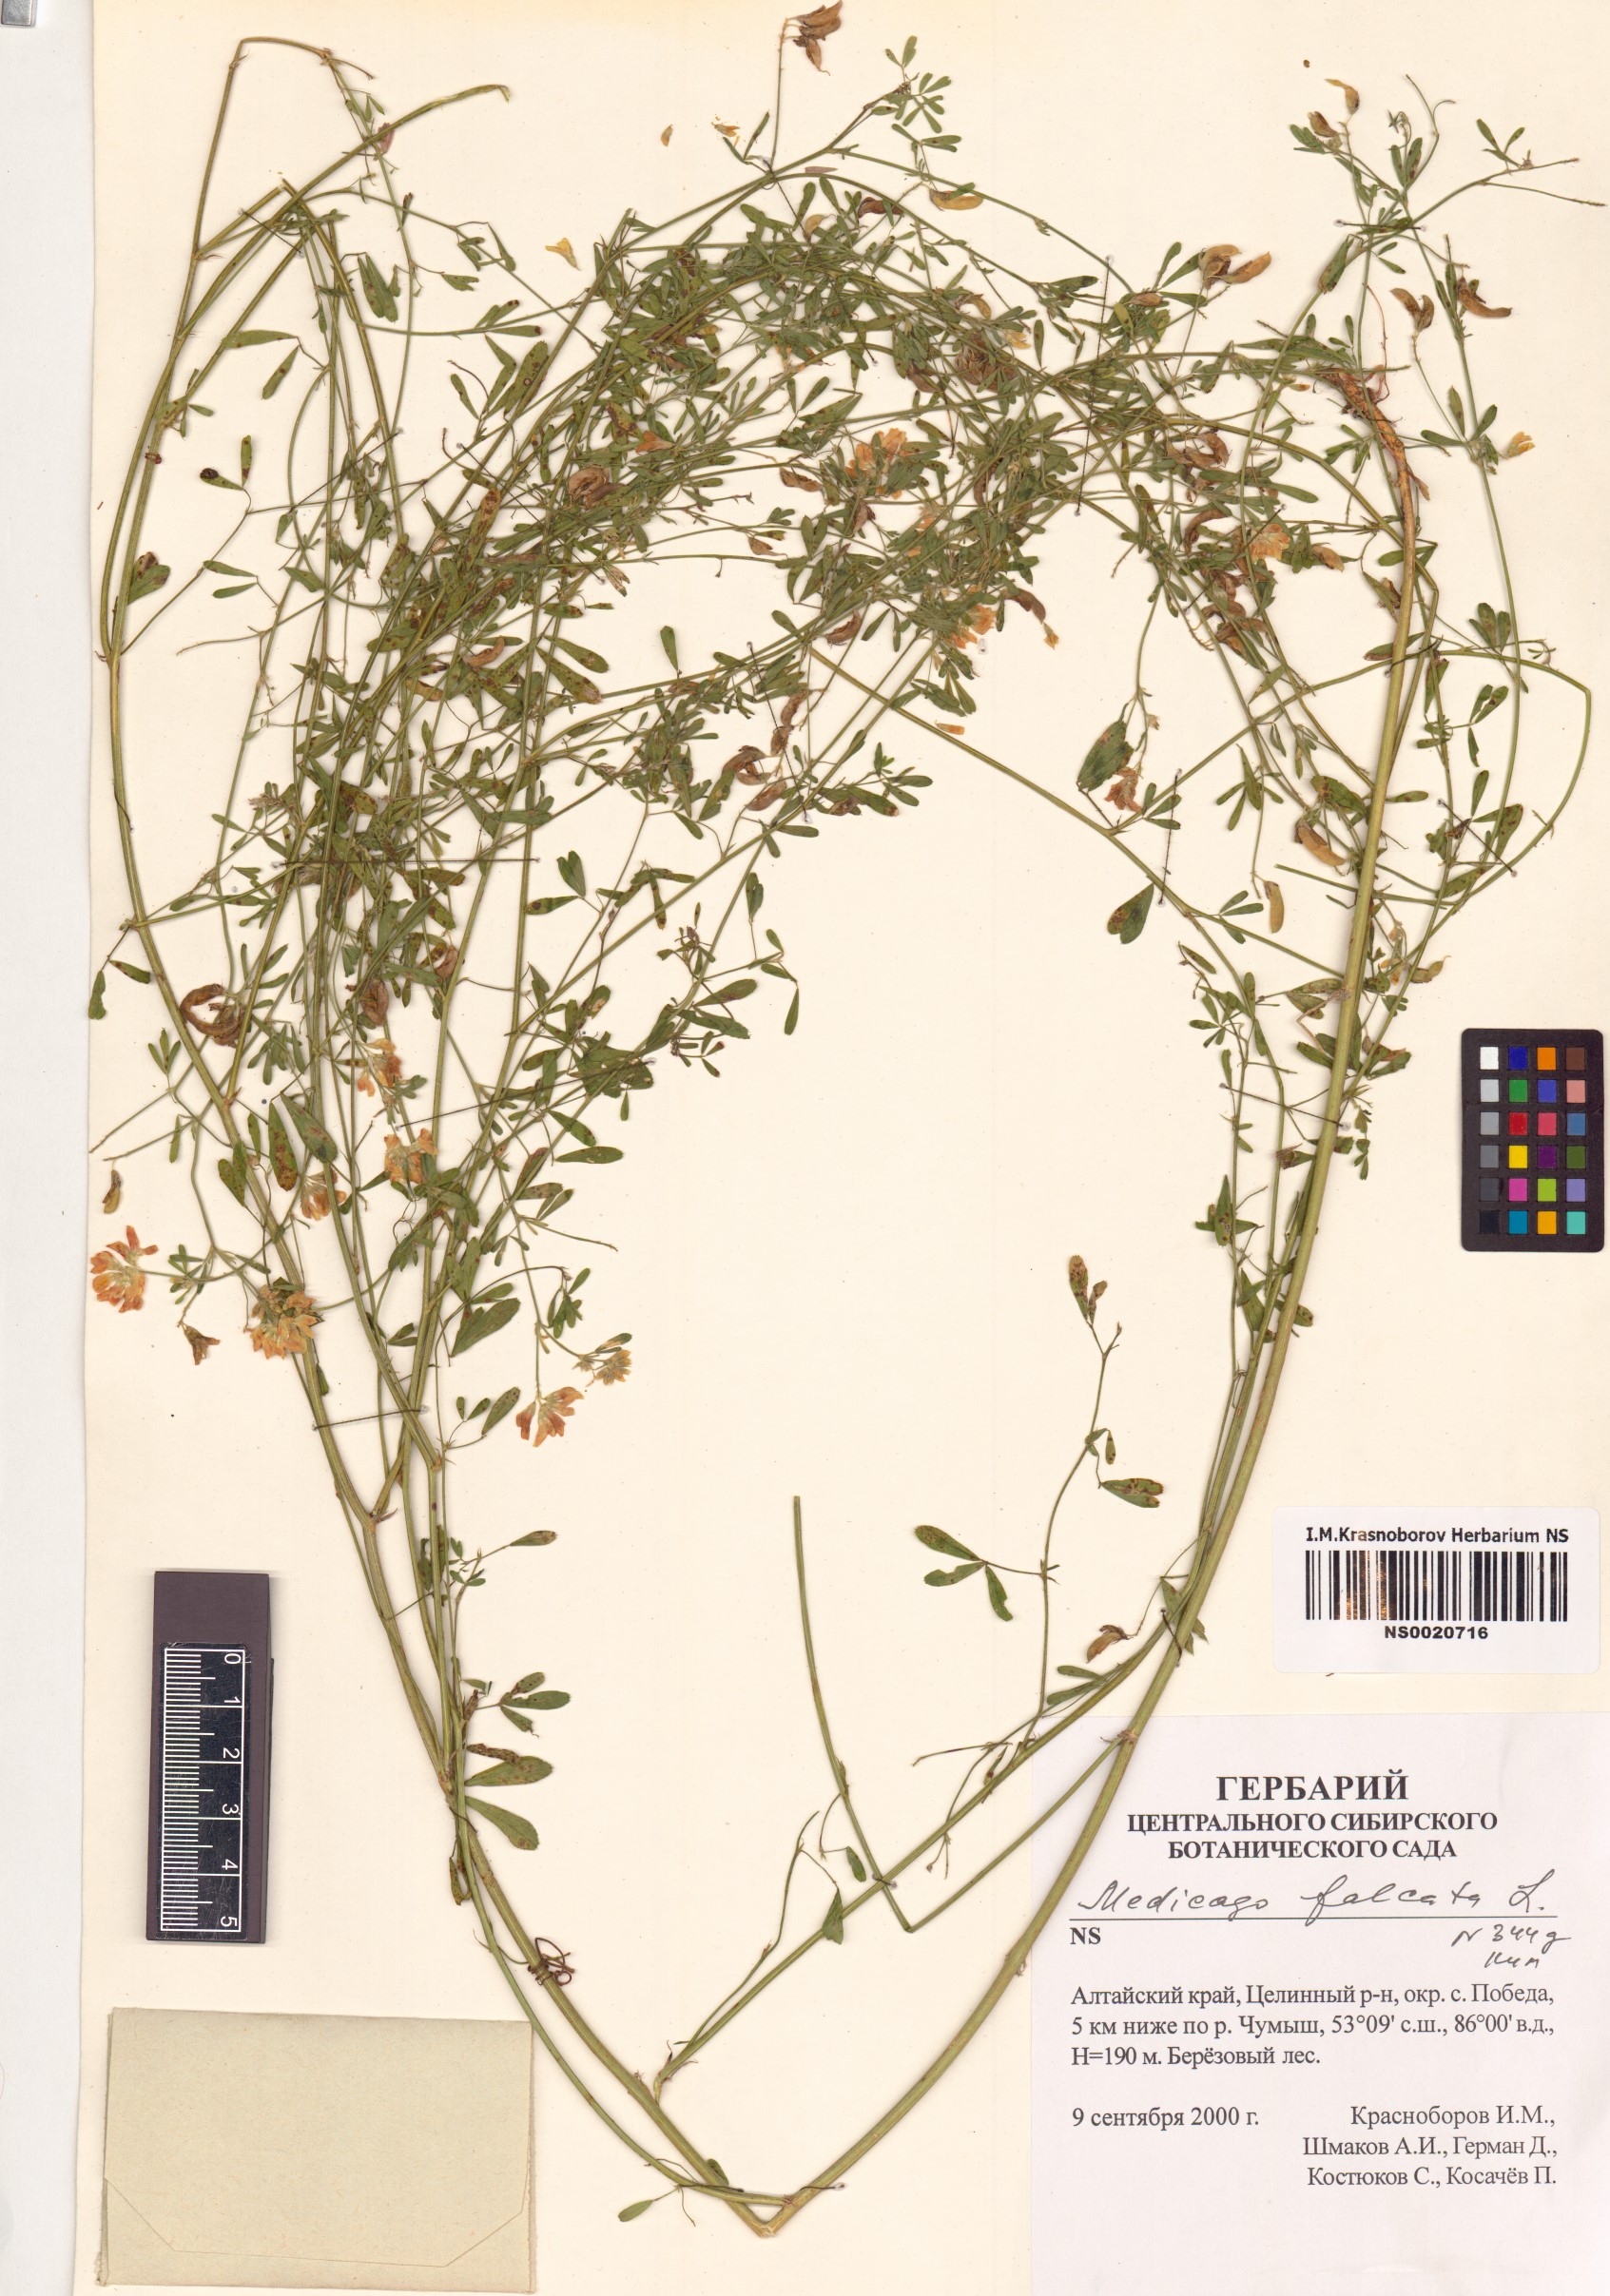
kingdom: Plantae
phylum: Tracheophyta
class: Magnoliopsida
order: Fabales
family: Fabaceae
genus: Medicago
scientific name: Medicago falcata
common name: Sickle medick
